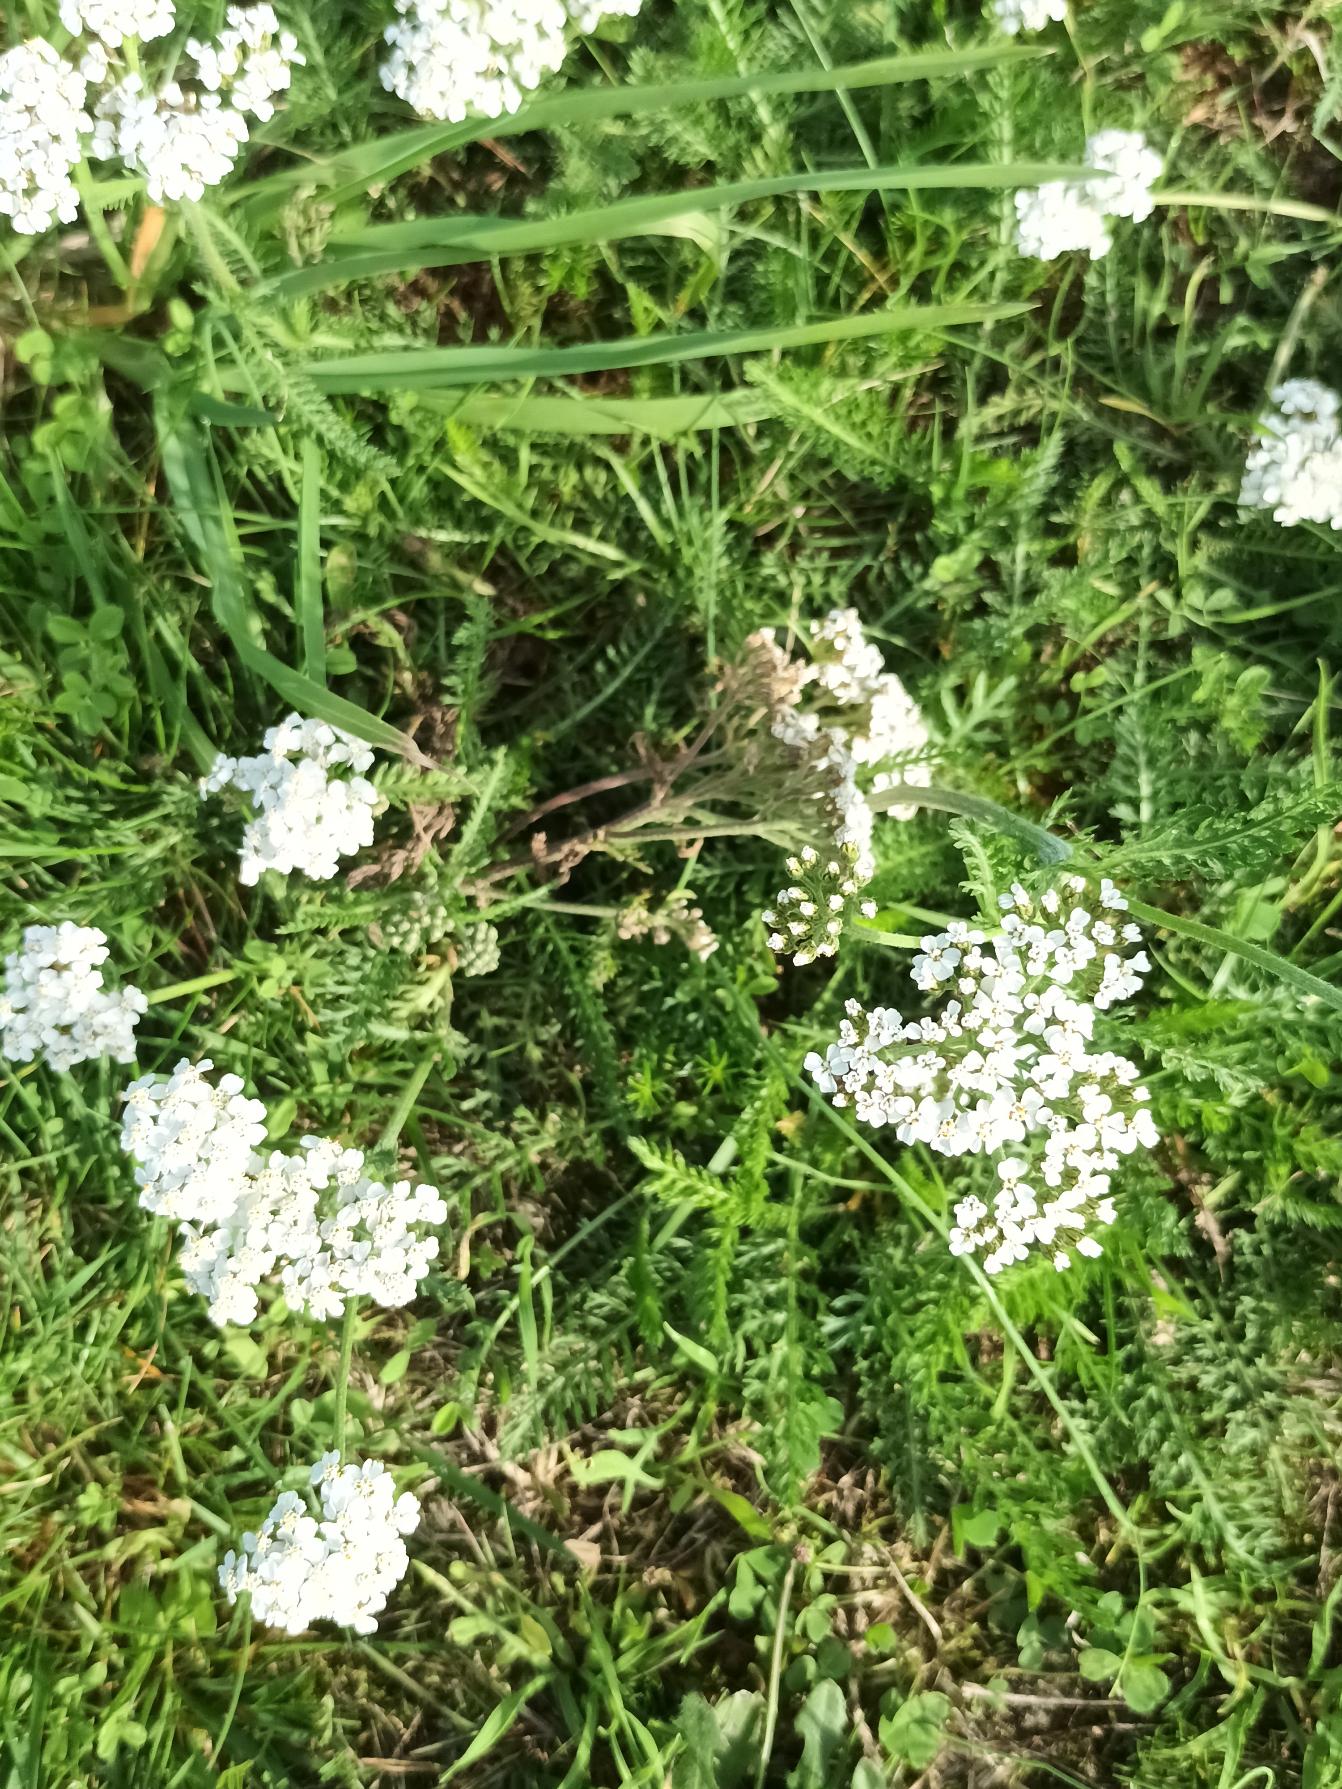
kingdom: Plantae
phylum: Tracheophyta
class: Magnoliopsida
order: Asterales
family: Asteraceae
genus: Achillea
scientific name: Achillea millefolium
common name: Almindelig røllike
